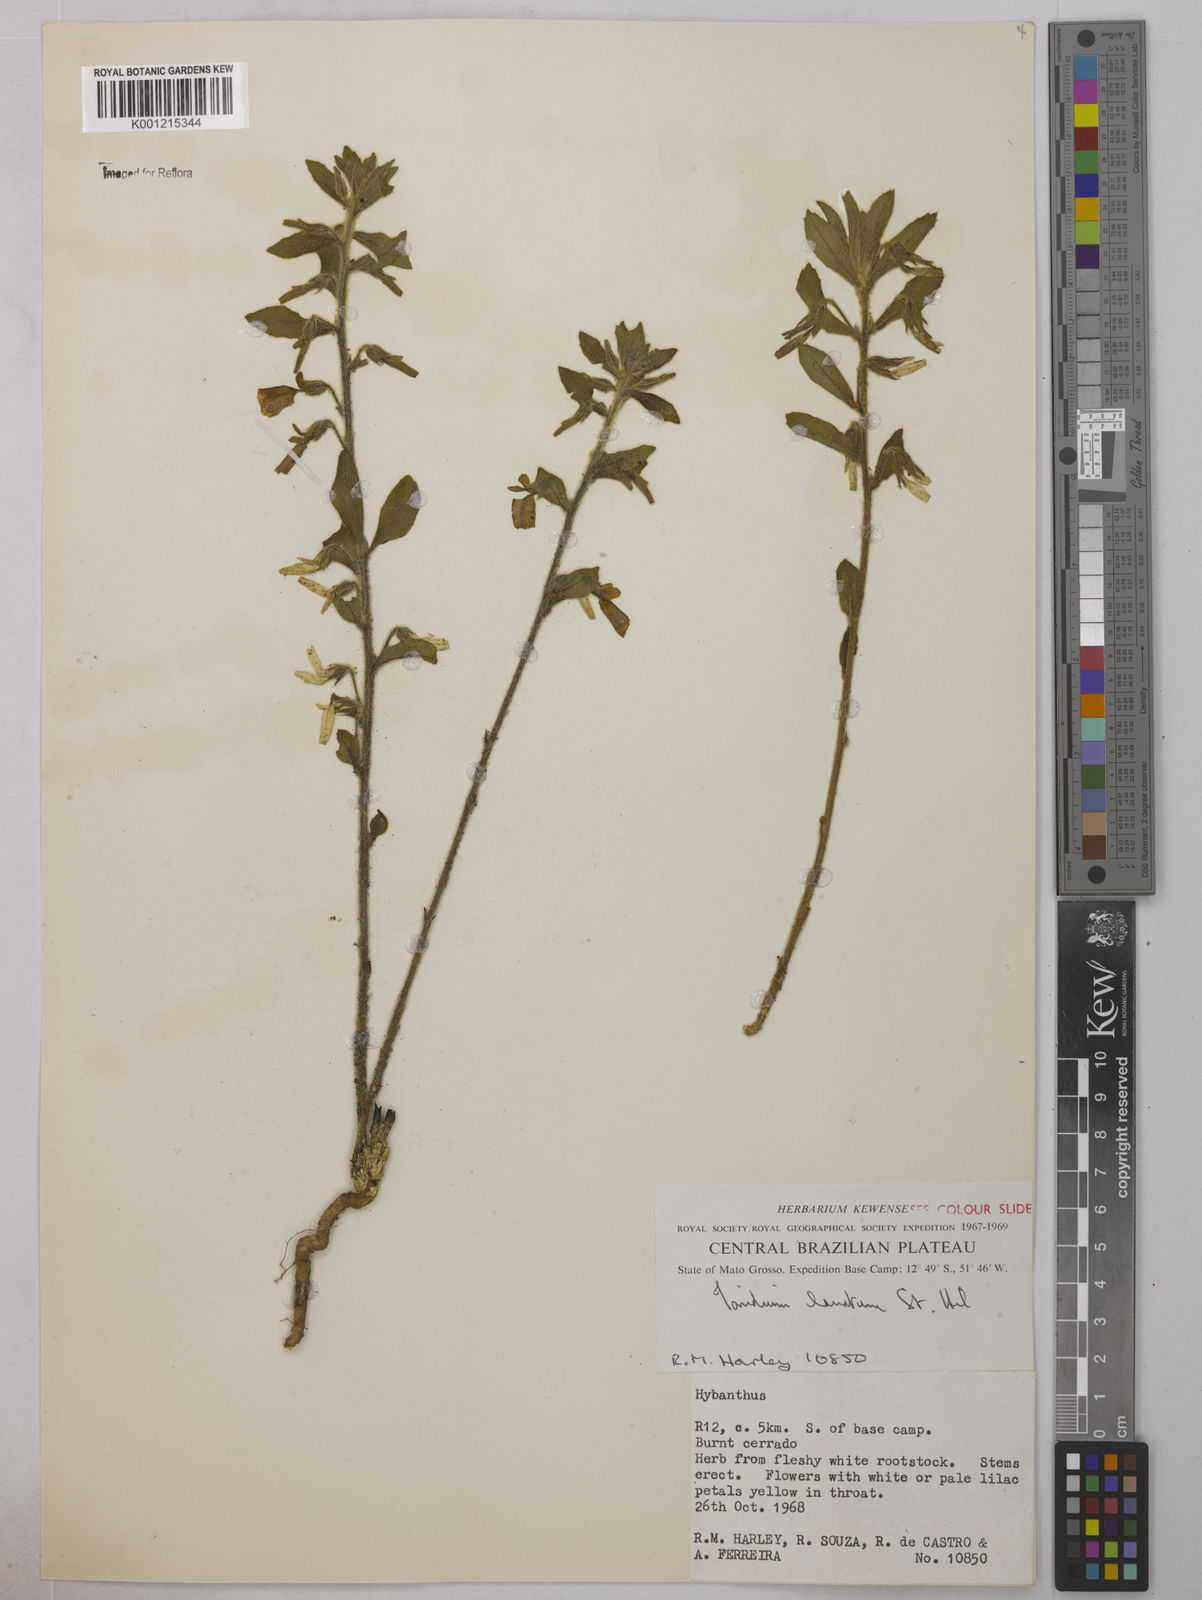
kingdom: Plantae
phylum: Tracheophyta
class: Magnoliopsida
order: Malpighiales
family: Violaceae
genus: Pombalia
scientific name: Pombalia lanata
